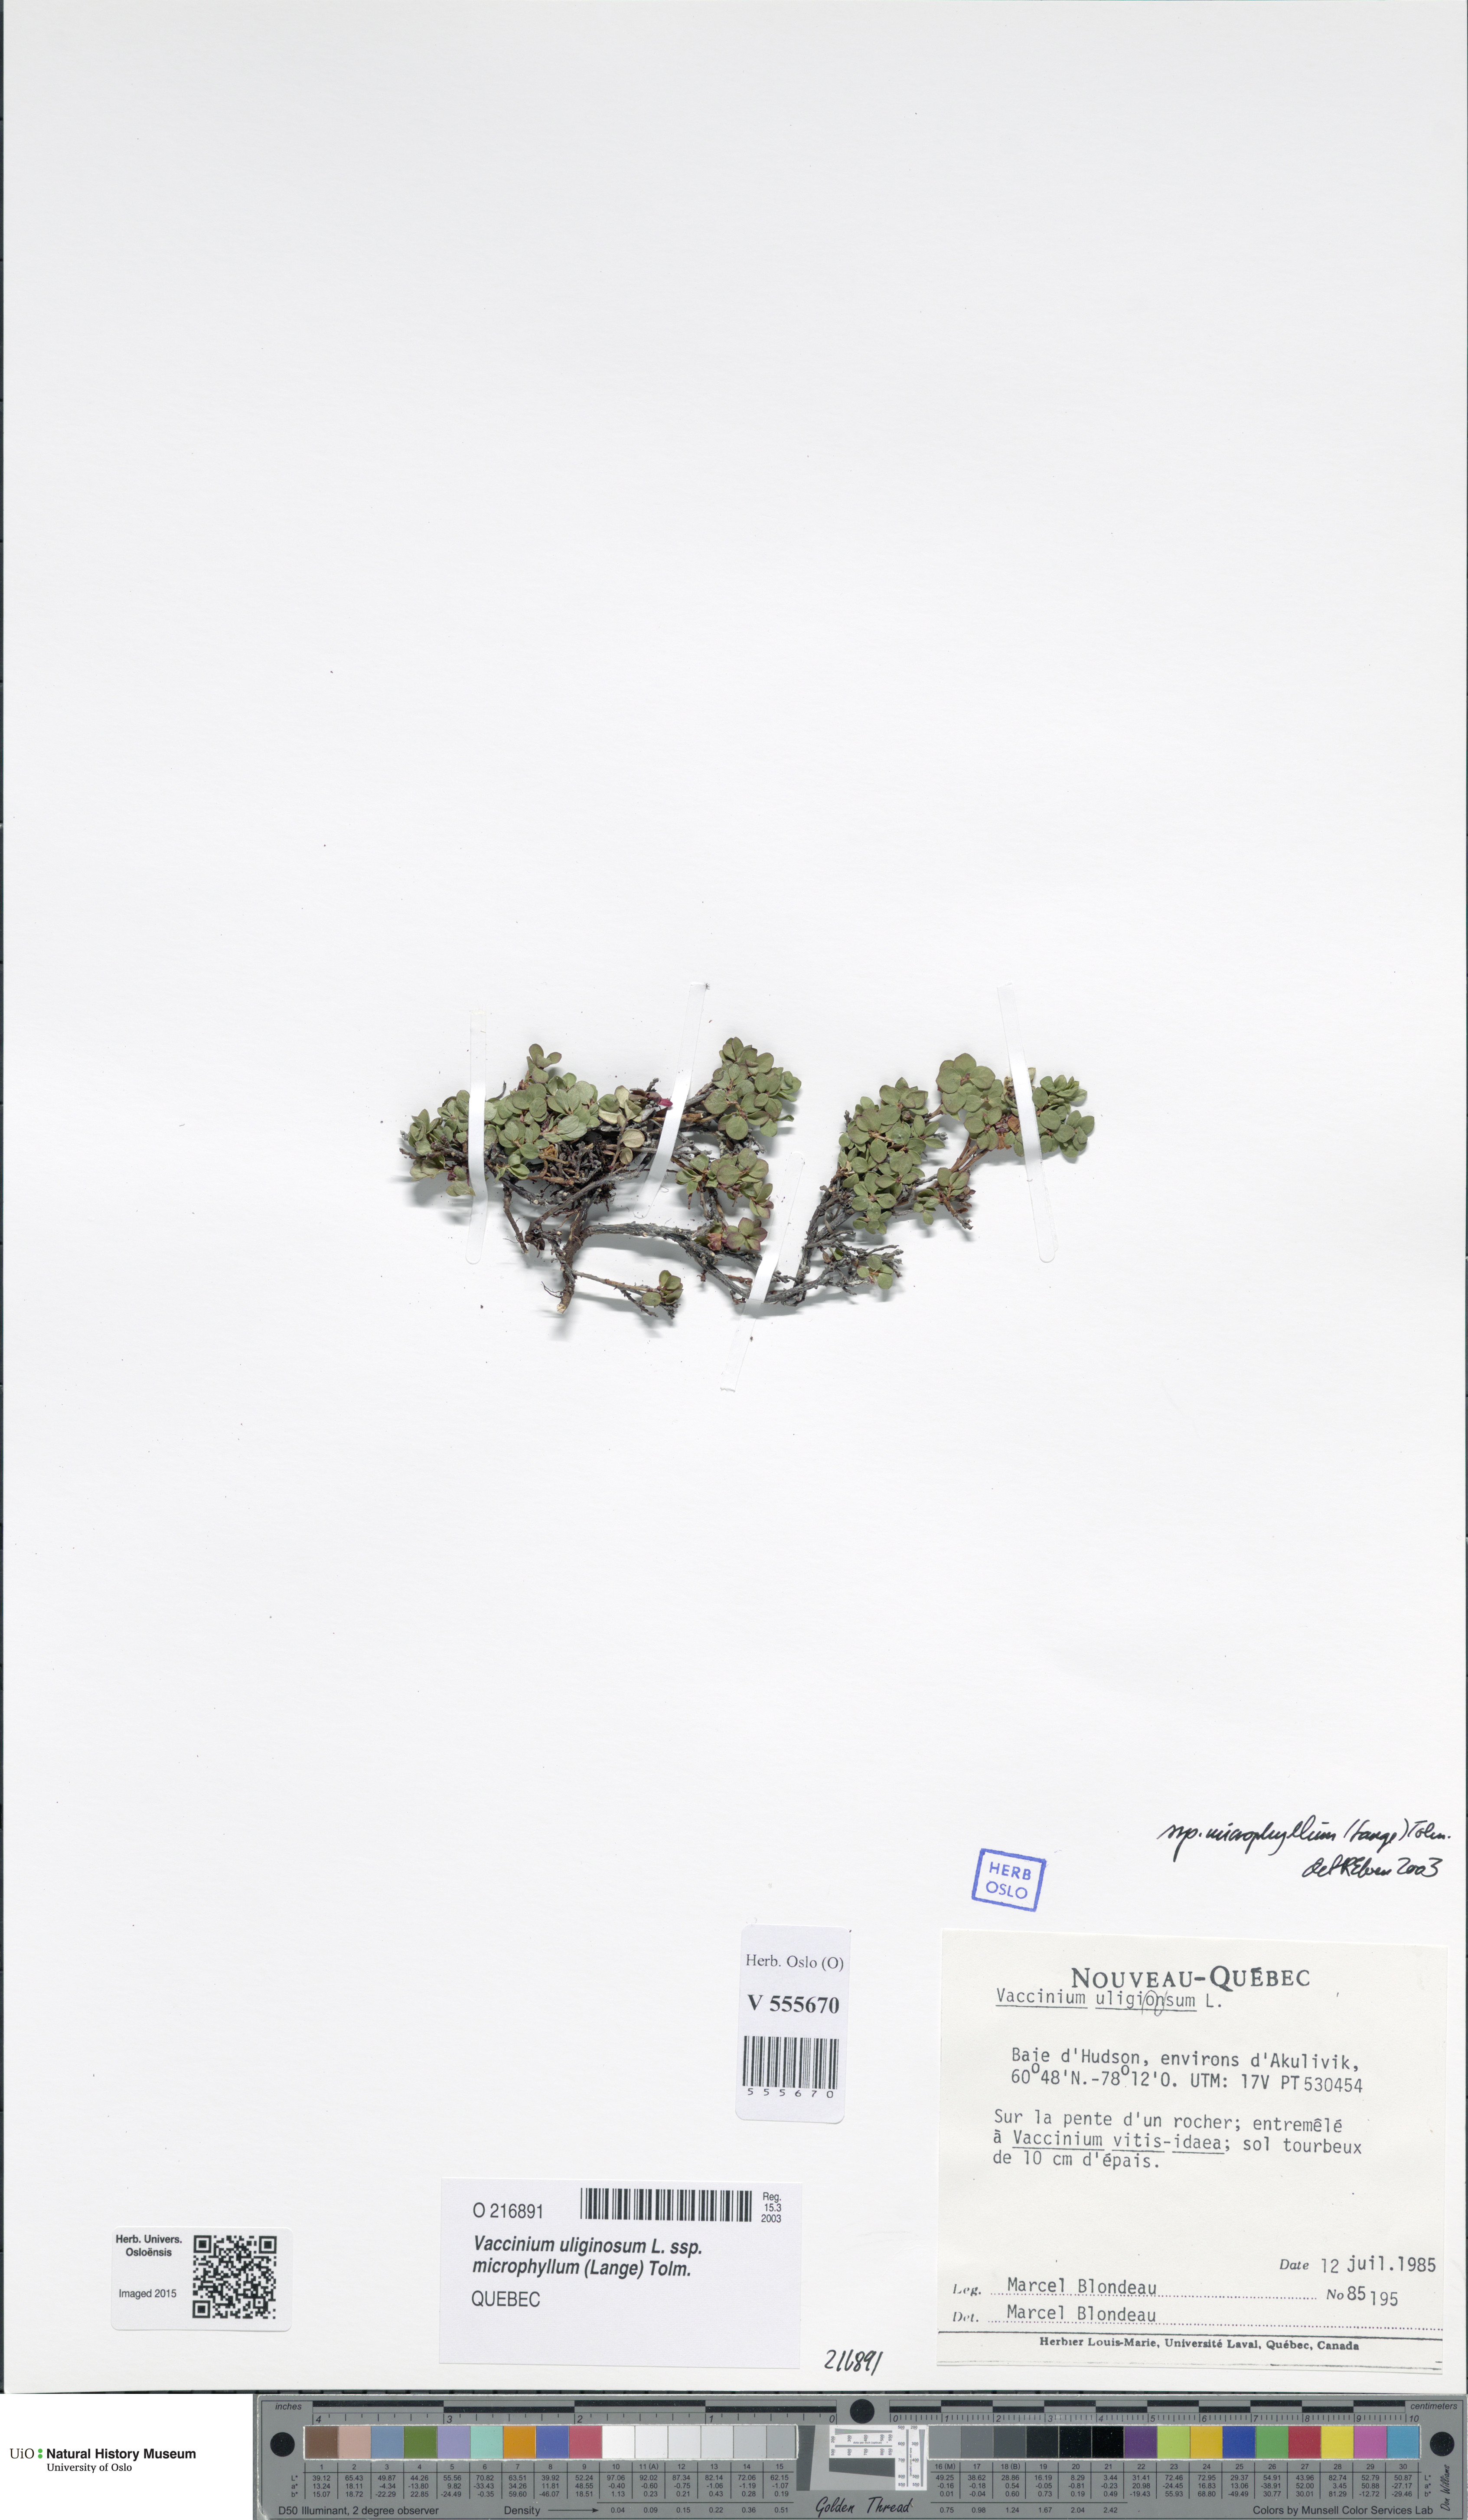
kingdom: Plantae
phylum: Tracheophyta
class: Magnoliopsida
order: Ericales
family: Ericaceae
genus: Vaccinium
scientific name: Vaccinium gaultherioides
